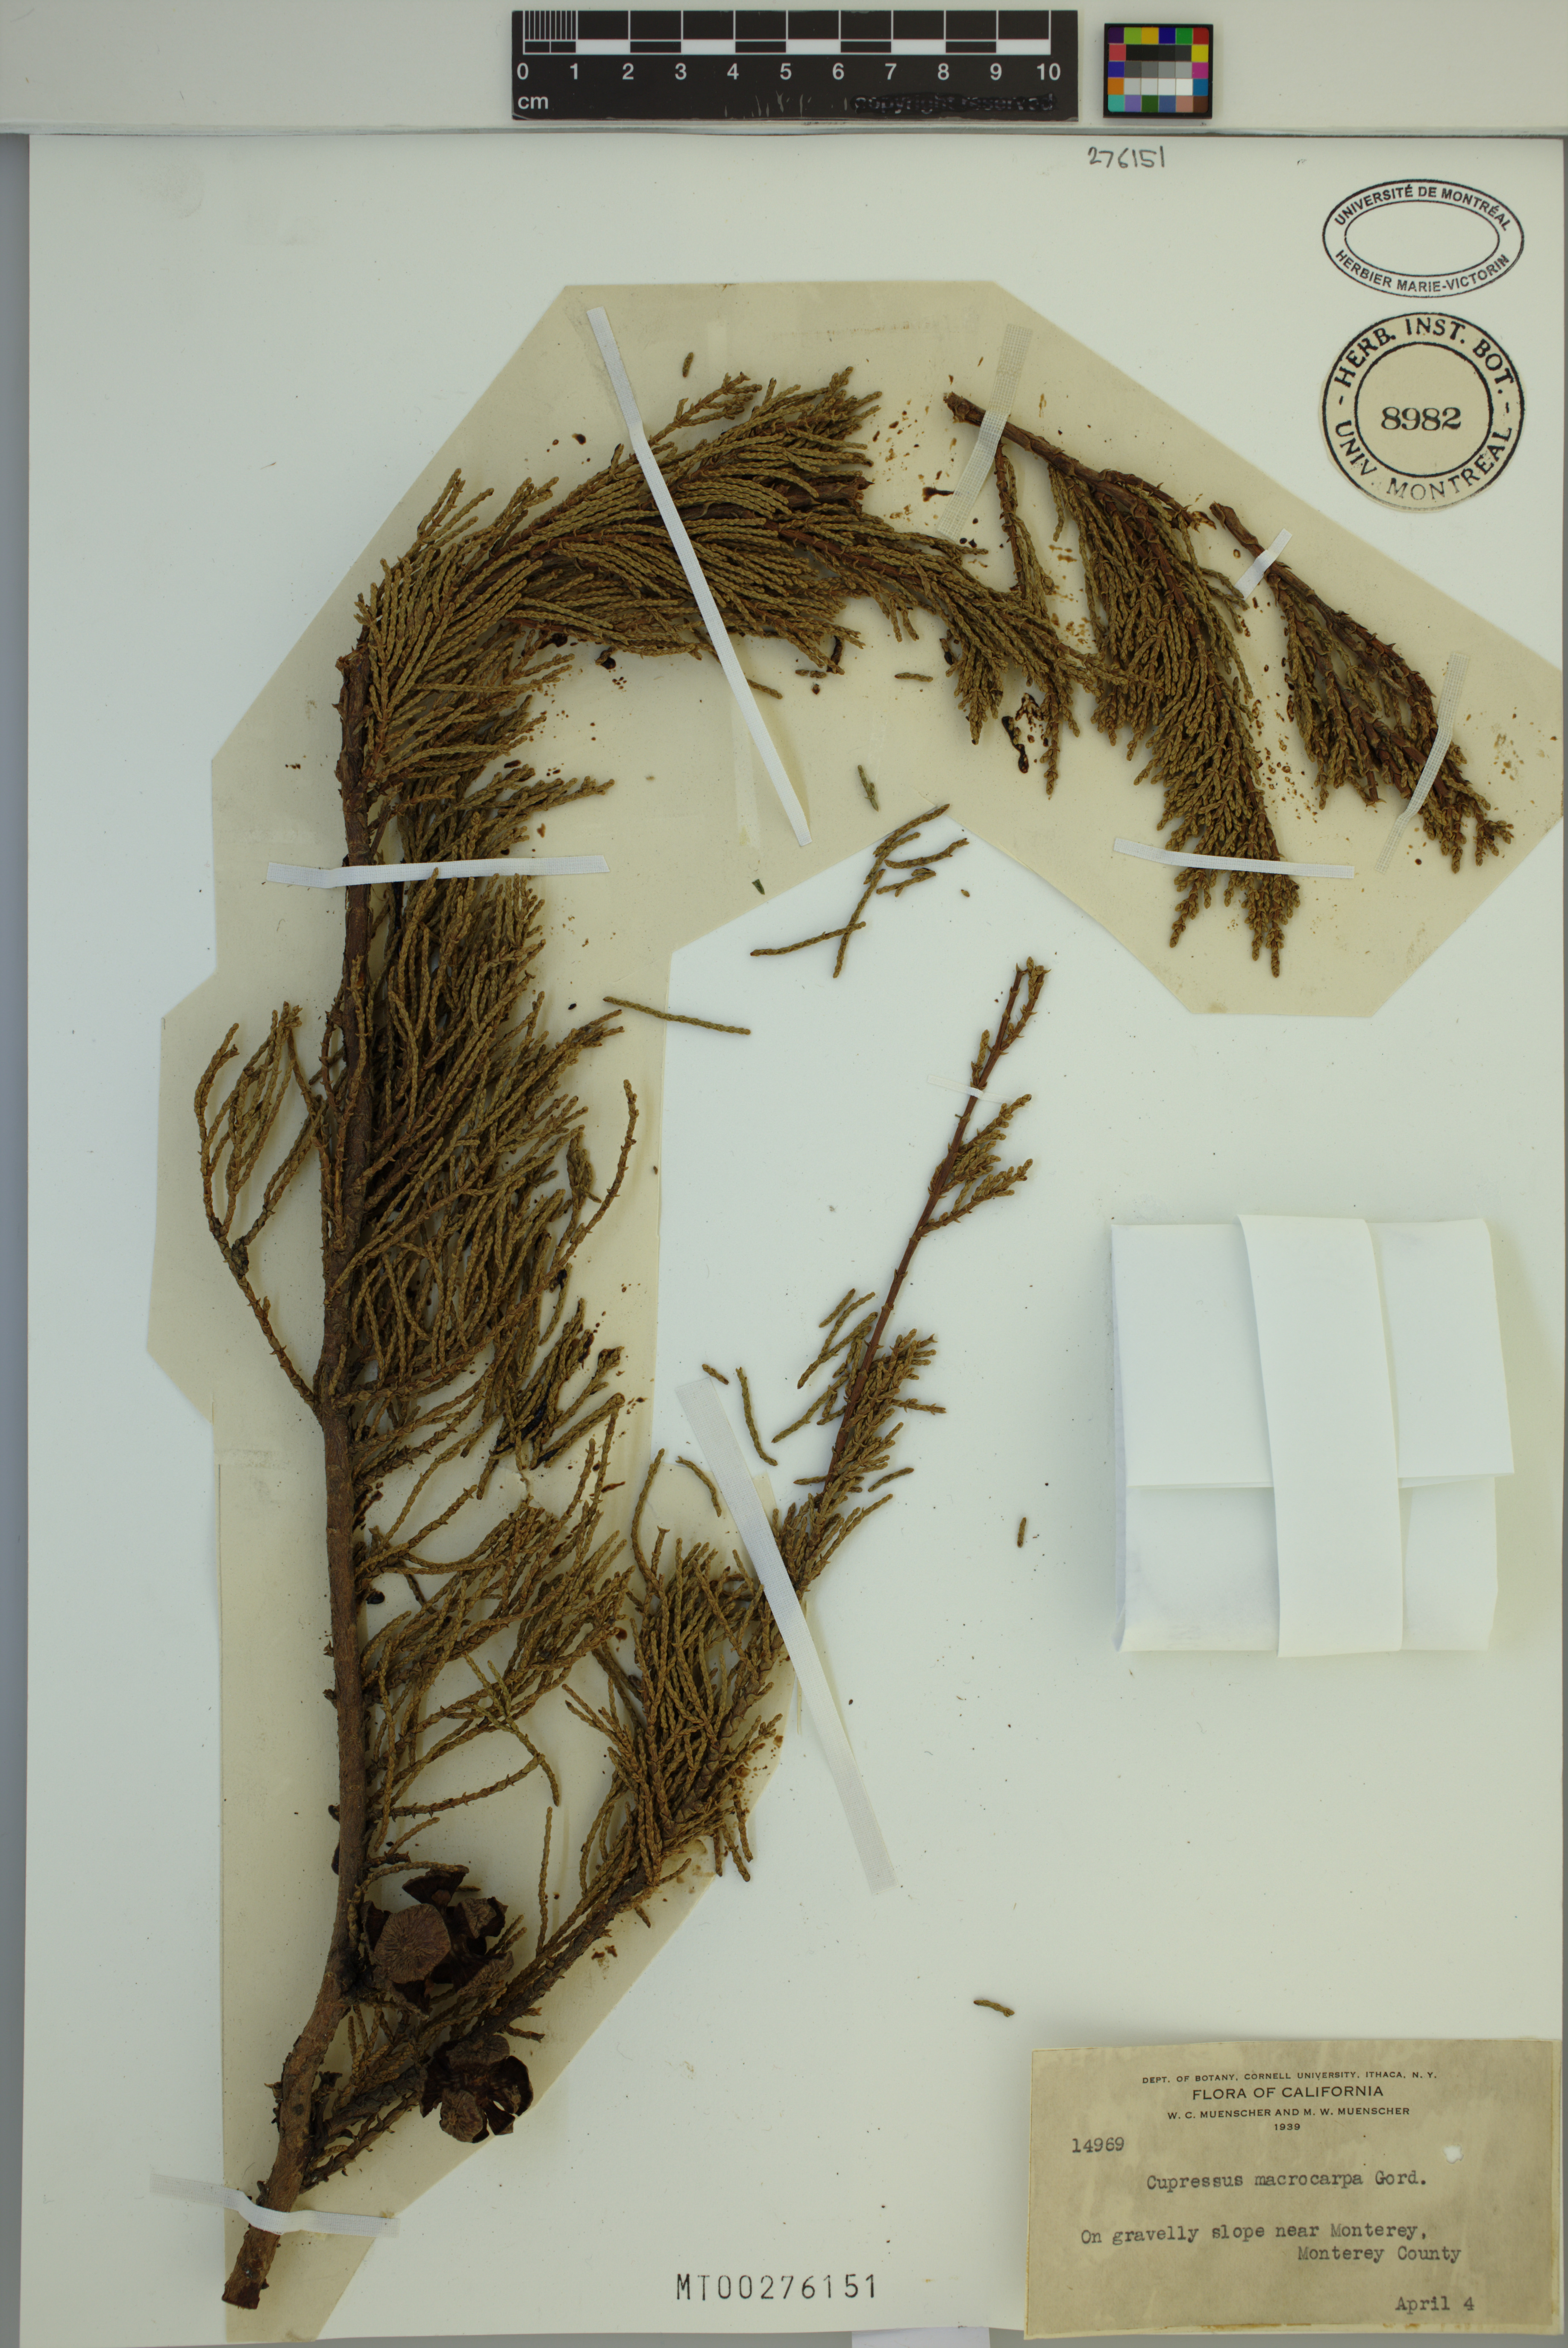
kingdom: Plantae
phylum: Tracheophyta
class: Pinopsida
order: Pinales
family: Cupressaceae
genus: Cupressus
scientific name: Cupressus macrocarpa
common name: Monterey cypress
